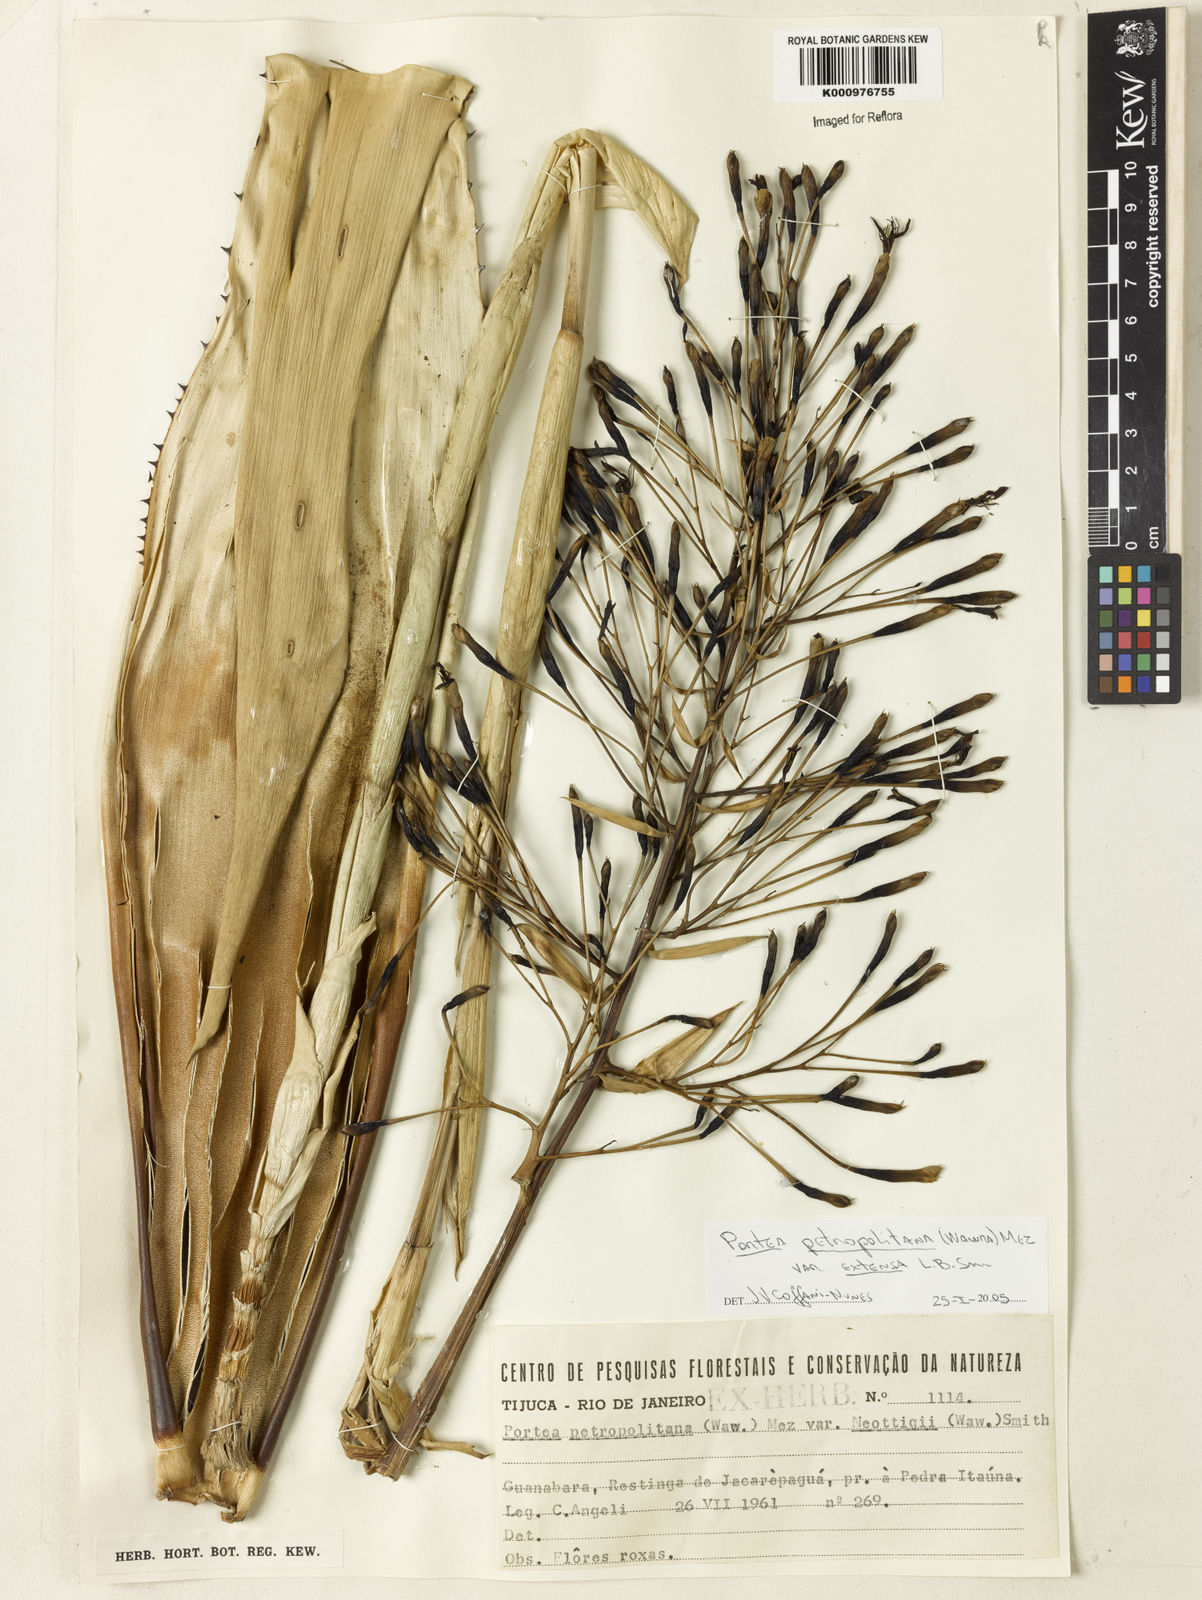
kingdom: Plantae
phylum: Tracheophyta
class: Liliopsida
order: Poales
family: Bromeliaceae
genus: Portea
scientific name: Portea petropolitana
